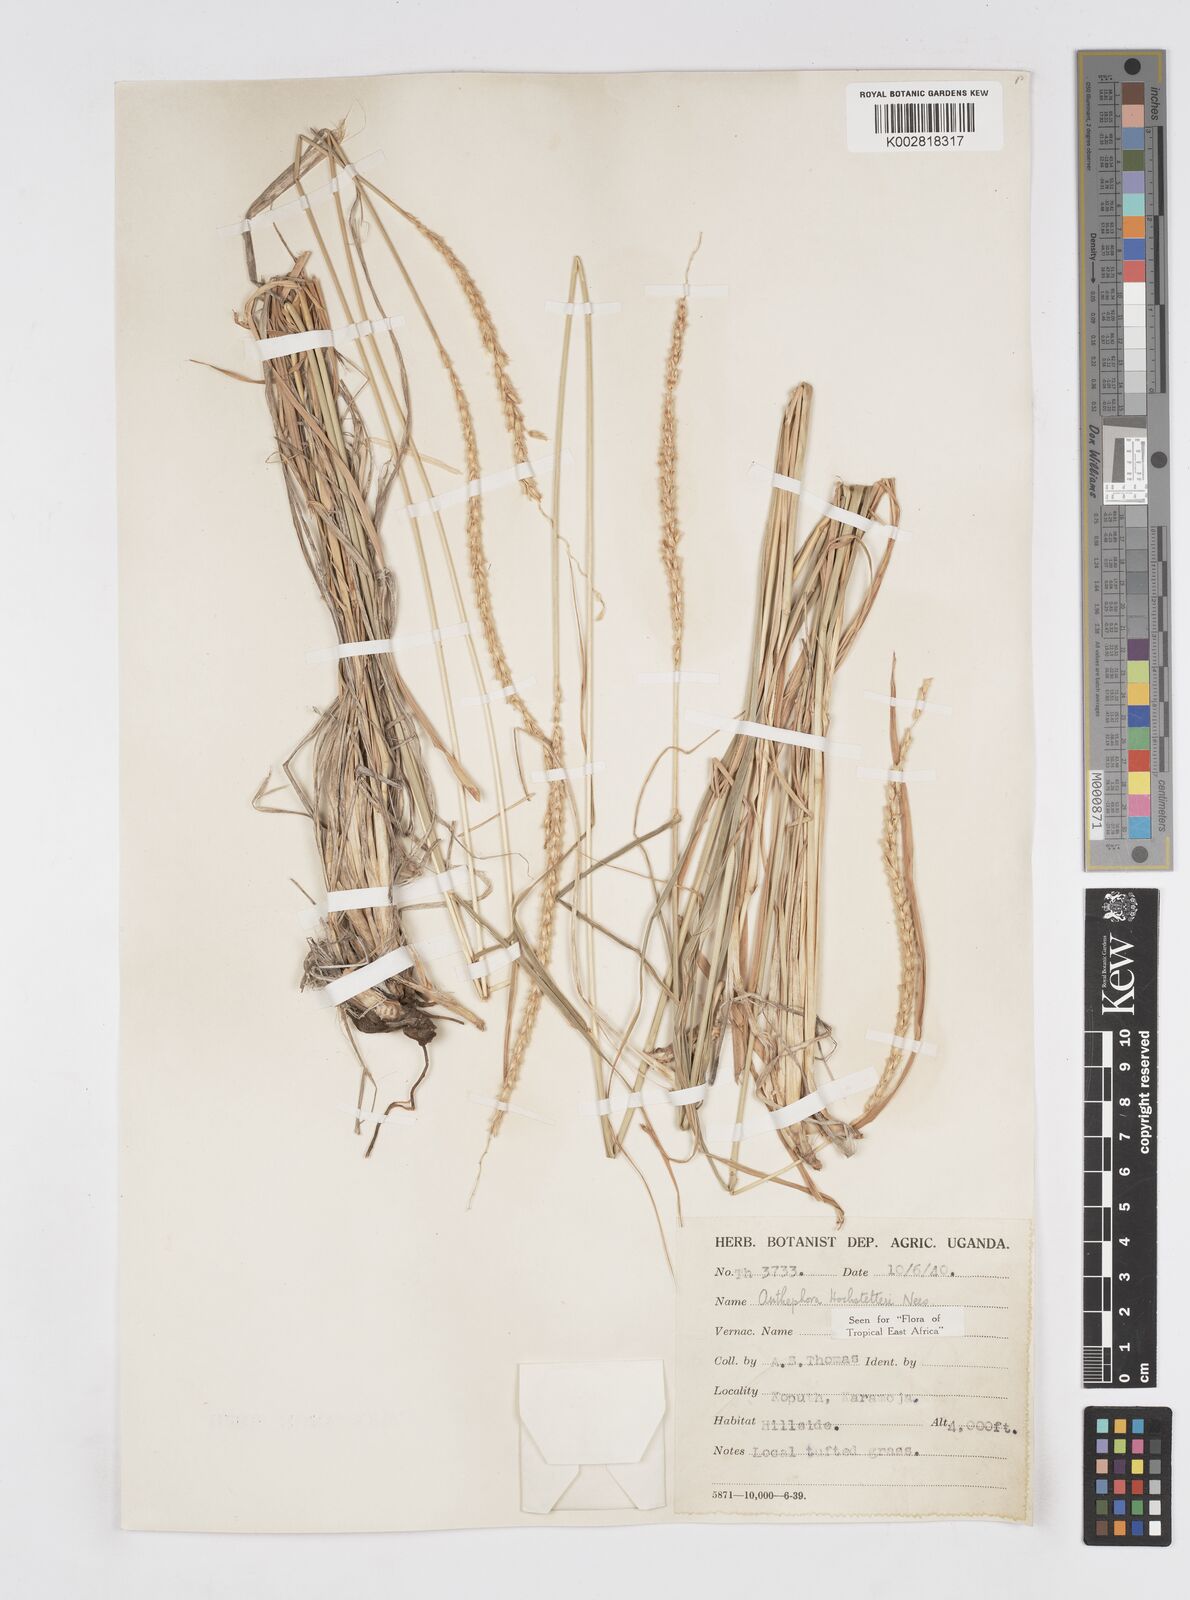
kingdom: Plantae
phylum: Tracheophyta
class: Liliopsida
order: Poales
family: Poaceae
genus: Anthephora
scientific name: Anthephora pubescens
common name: Wool grass
